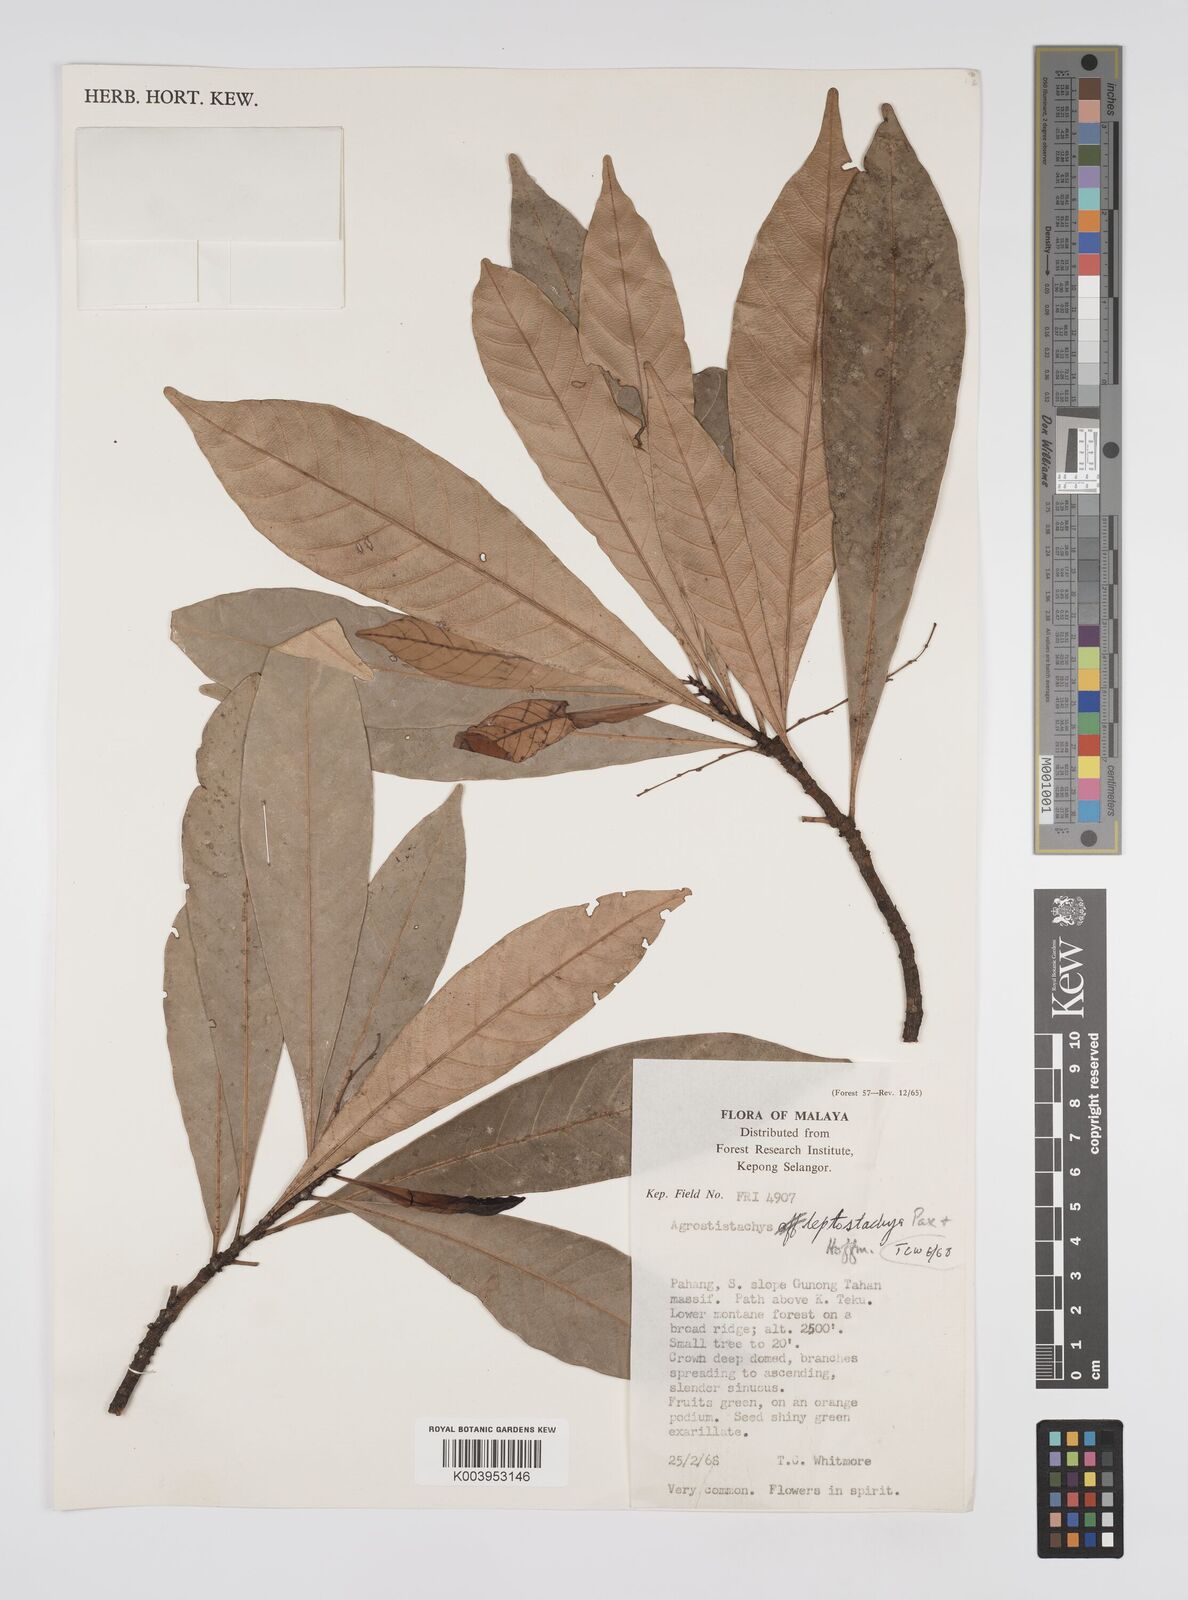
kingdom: Plantae
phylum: Tracheophyta
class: Magnoliopsida
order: Malpighiales
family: Euphorbiaceae
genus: Agrostistachys
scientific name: Agrostistachys borneensis
